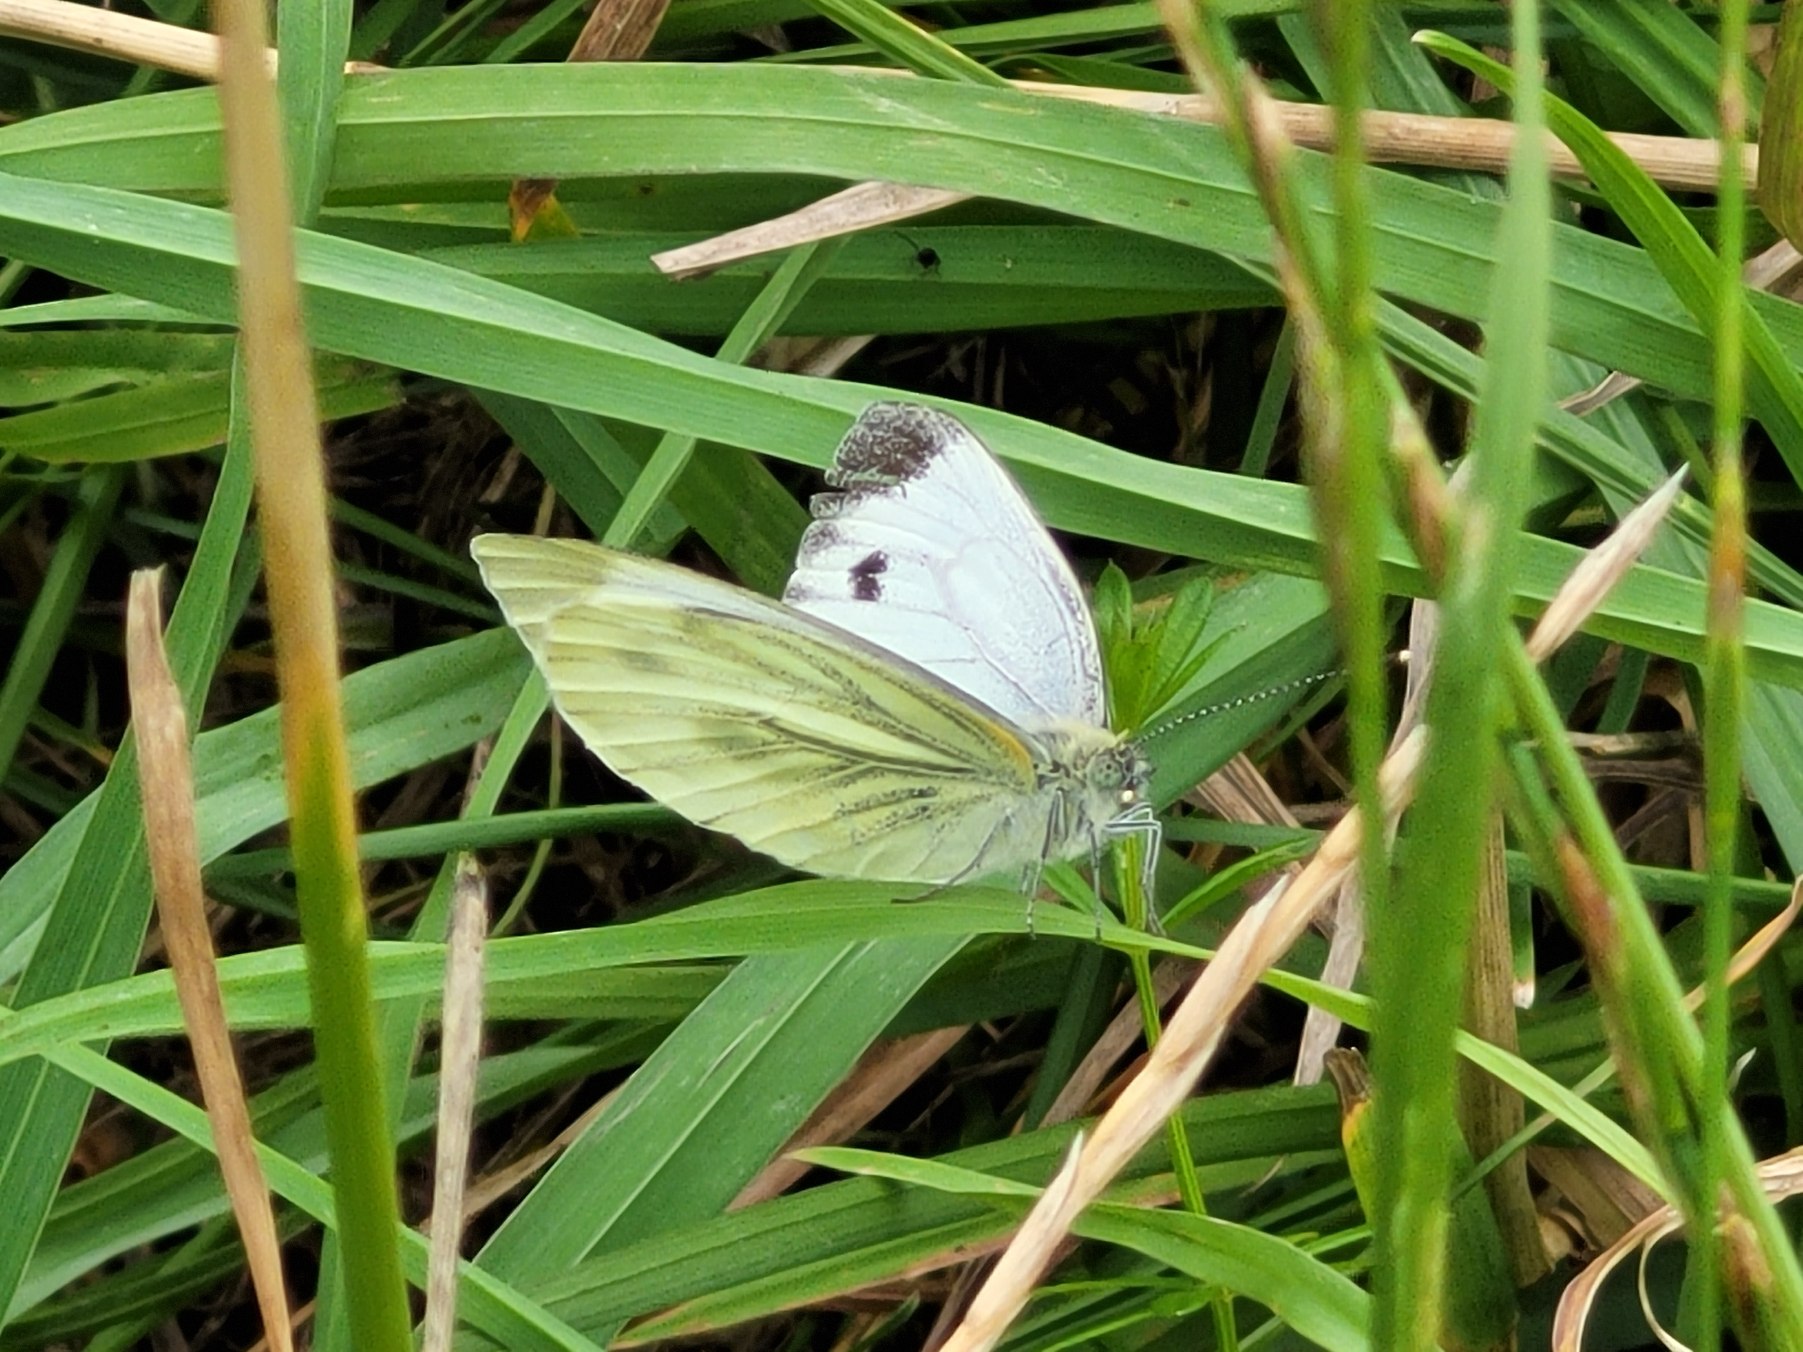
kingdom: Animalia
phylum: Arthropoda
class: Insecta
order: Lepidoptera
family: Pieridae
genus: Pieris
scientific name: Pieris napi
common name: Grønåret kålsommerfugl
